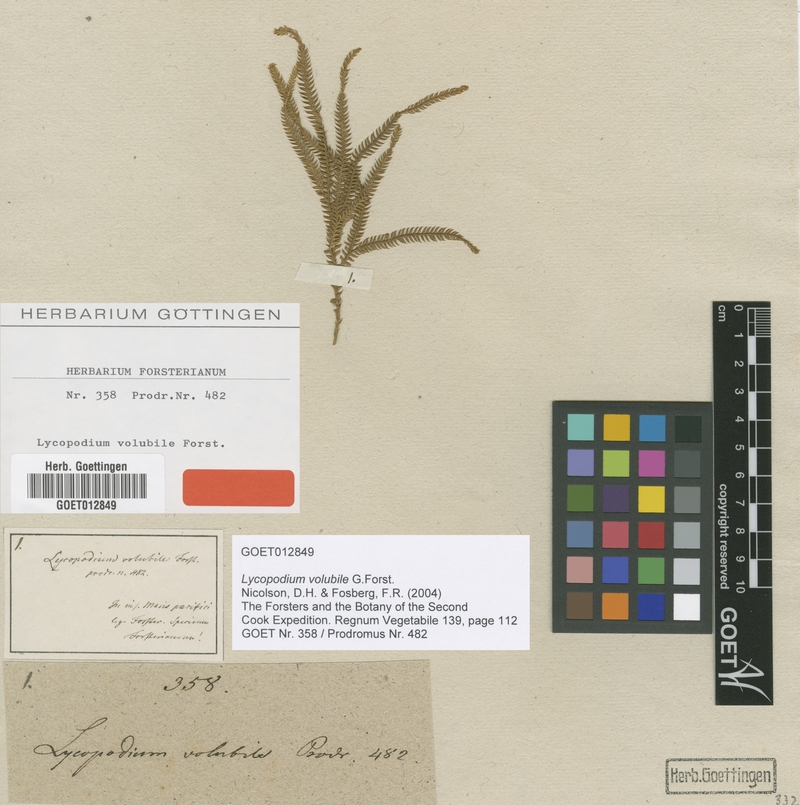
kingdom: Plantae
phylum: Tracheophyta
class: Lycopodiopsida
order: Lycopodiales
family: Lycopodiaceae
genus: Pseudodiphasium
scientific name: Pseudodiphasium volubile
